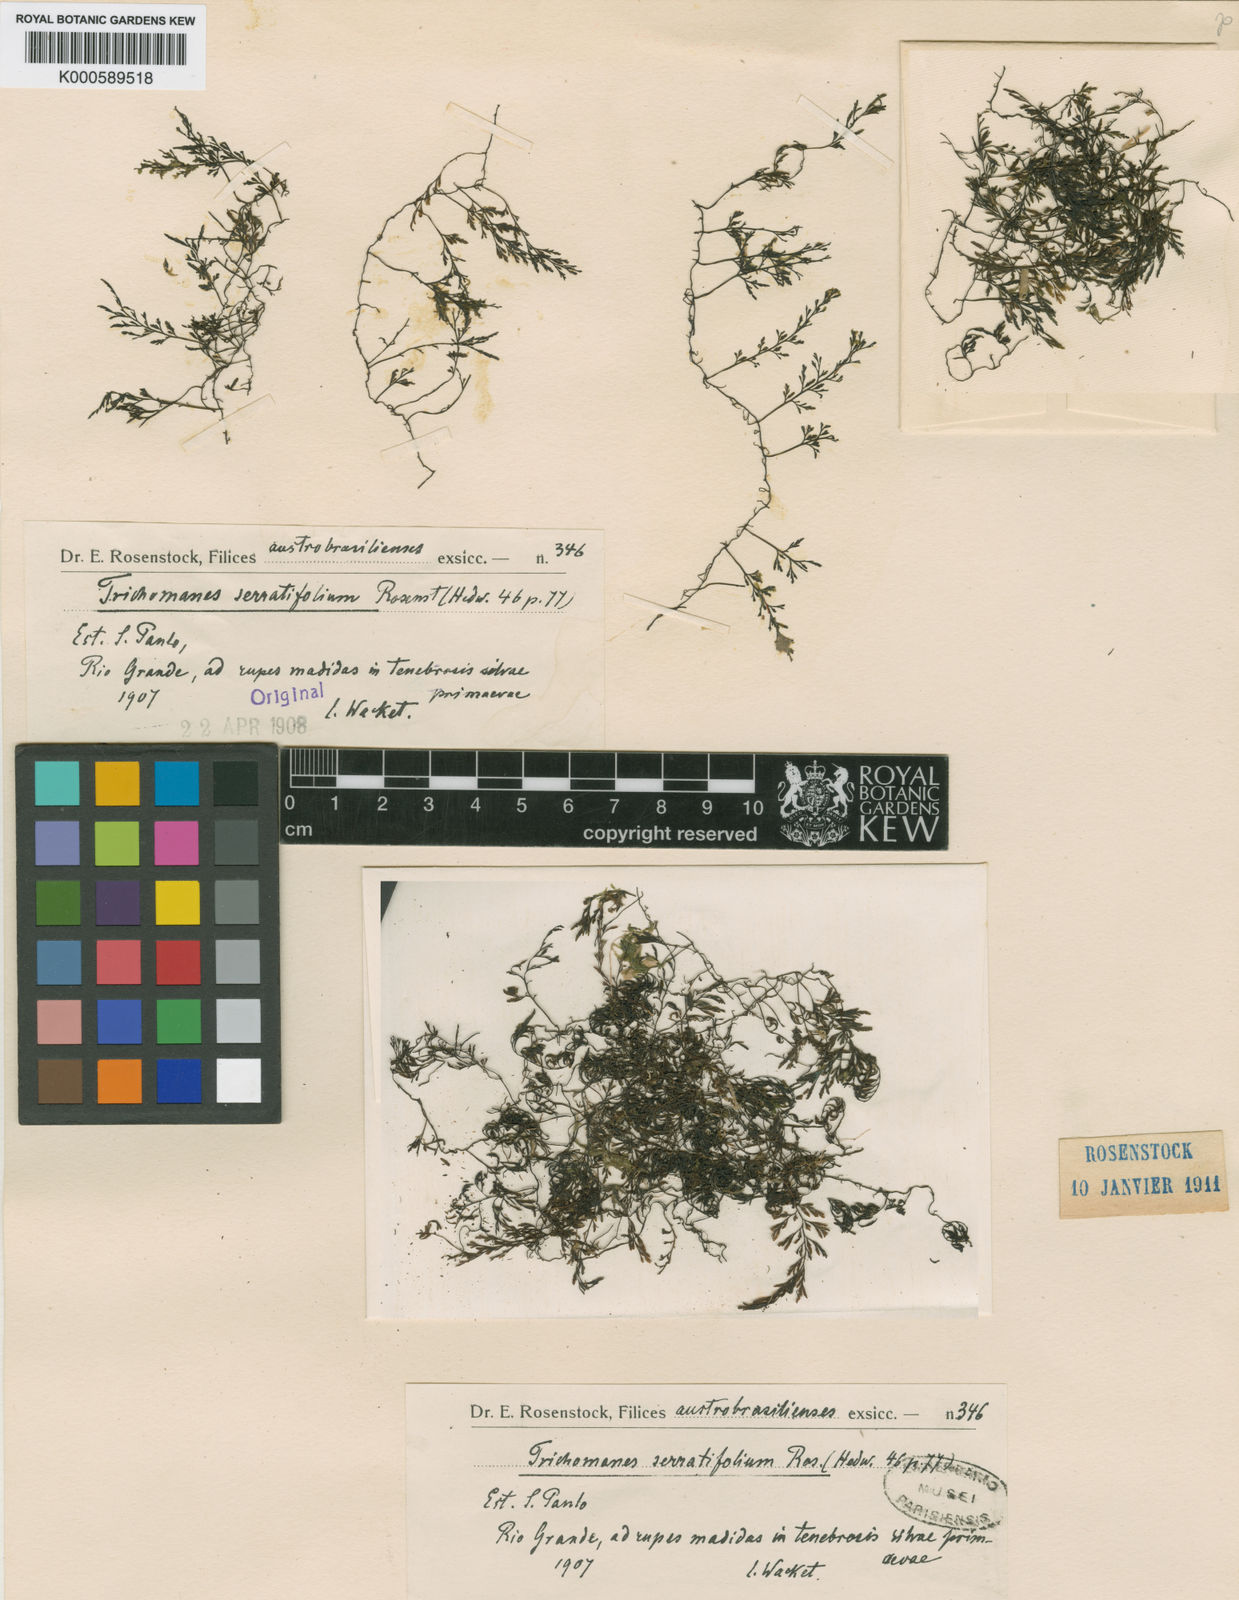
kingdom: Plantae
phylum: Tracheophyta
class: Polypodiopsida
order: Hymenophyllales
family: Hymenophyllaceae
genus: Vandenboschia
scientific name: Vandenboschia serratifolia
